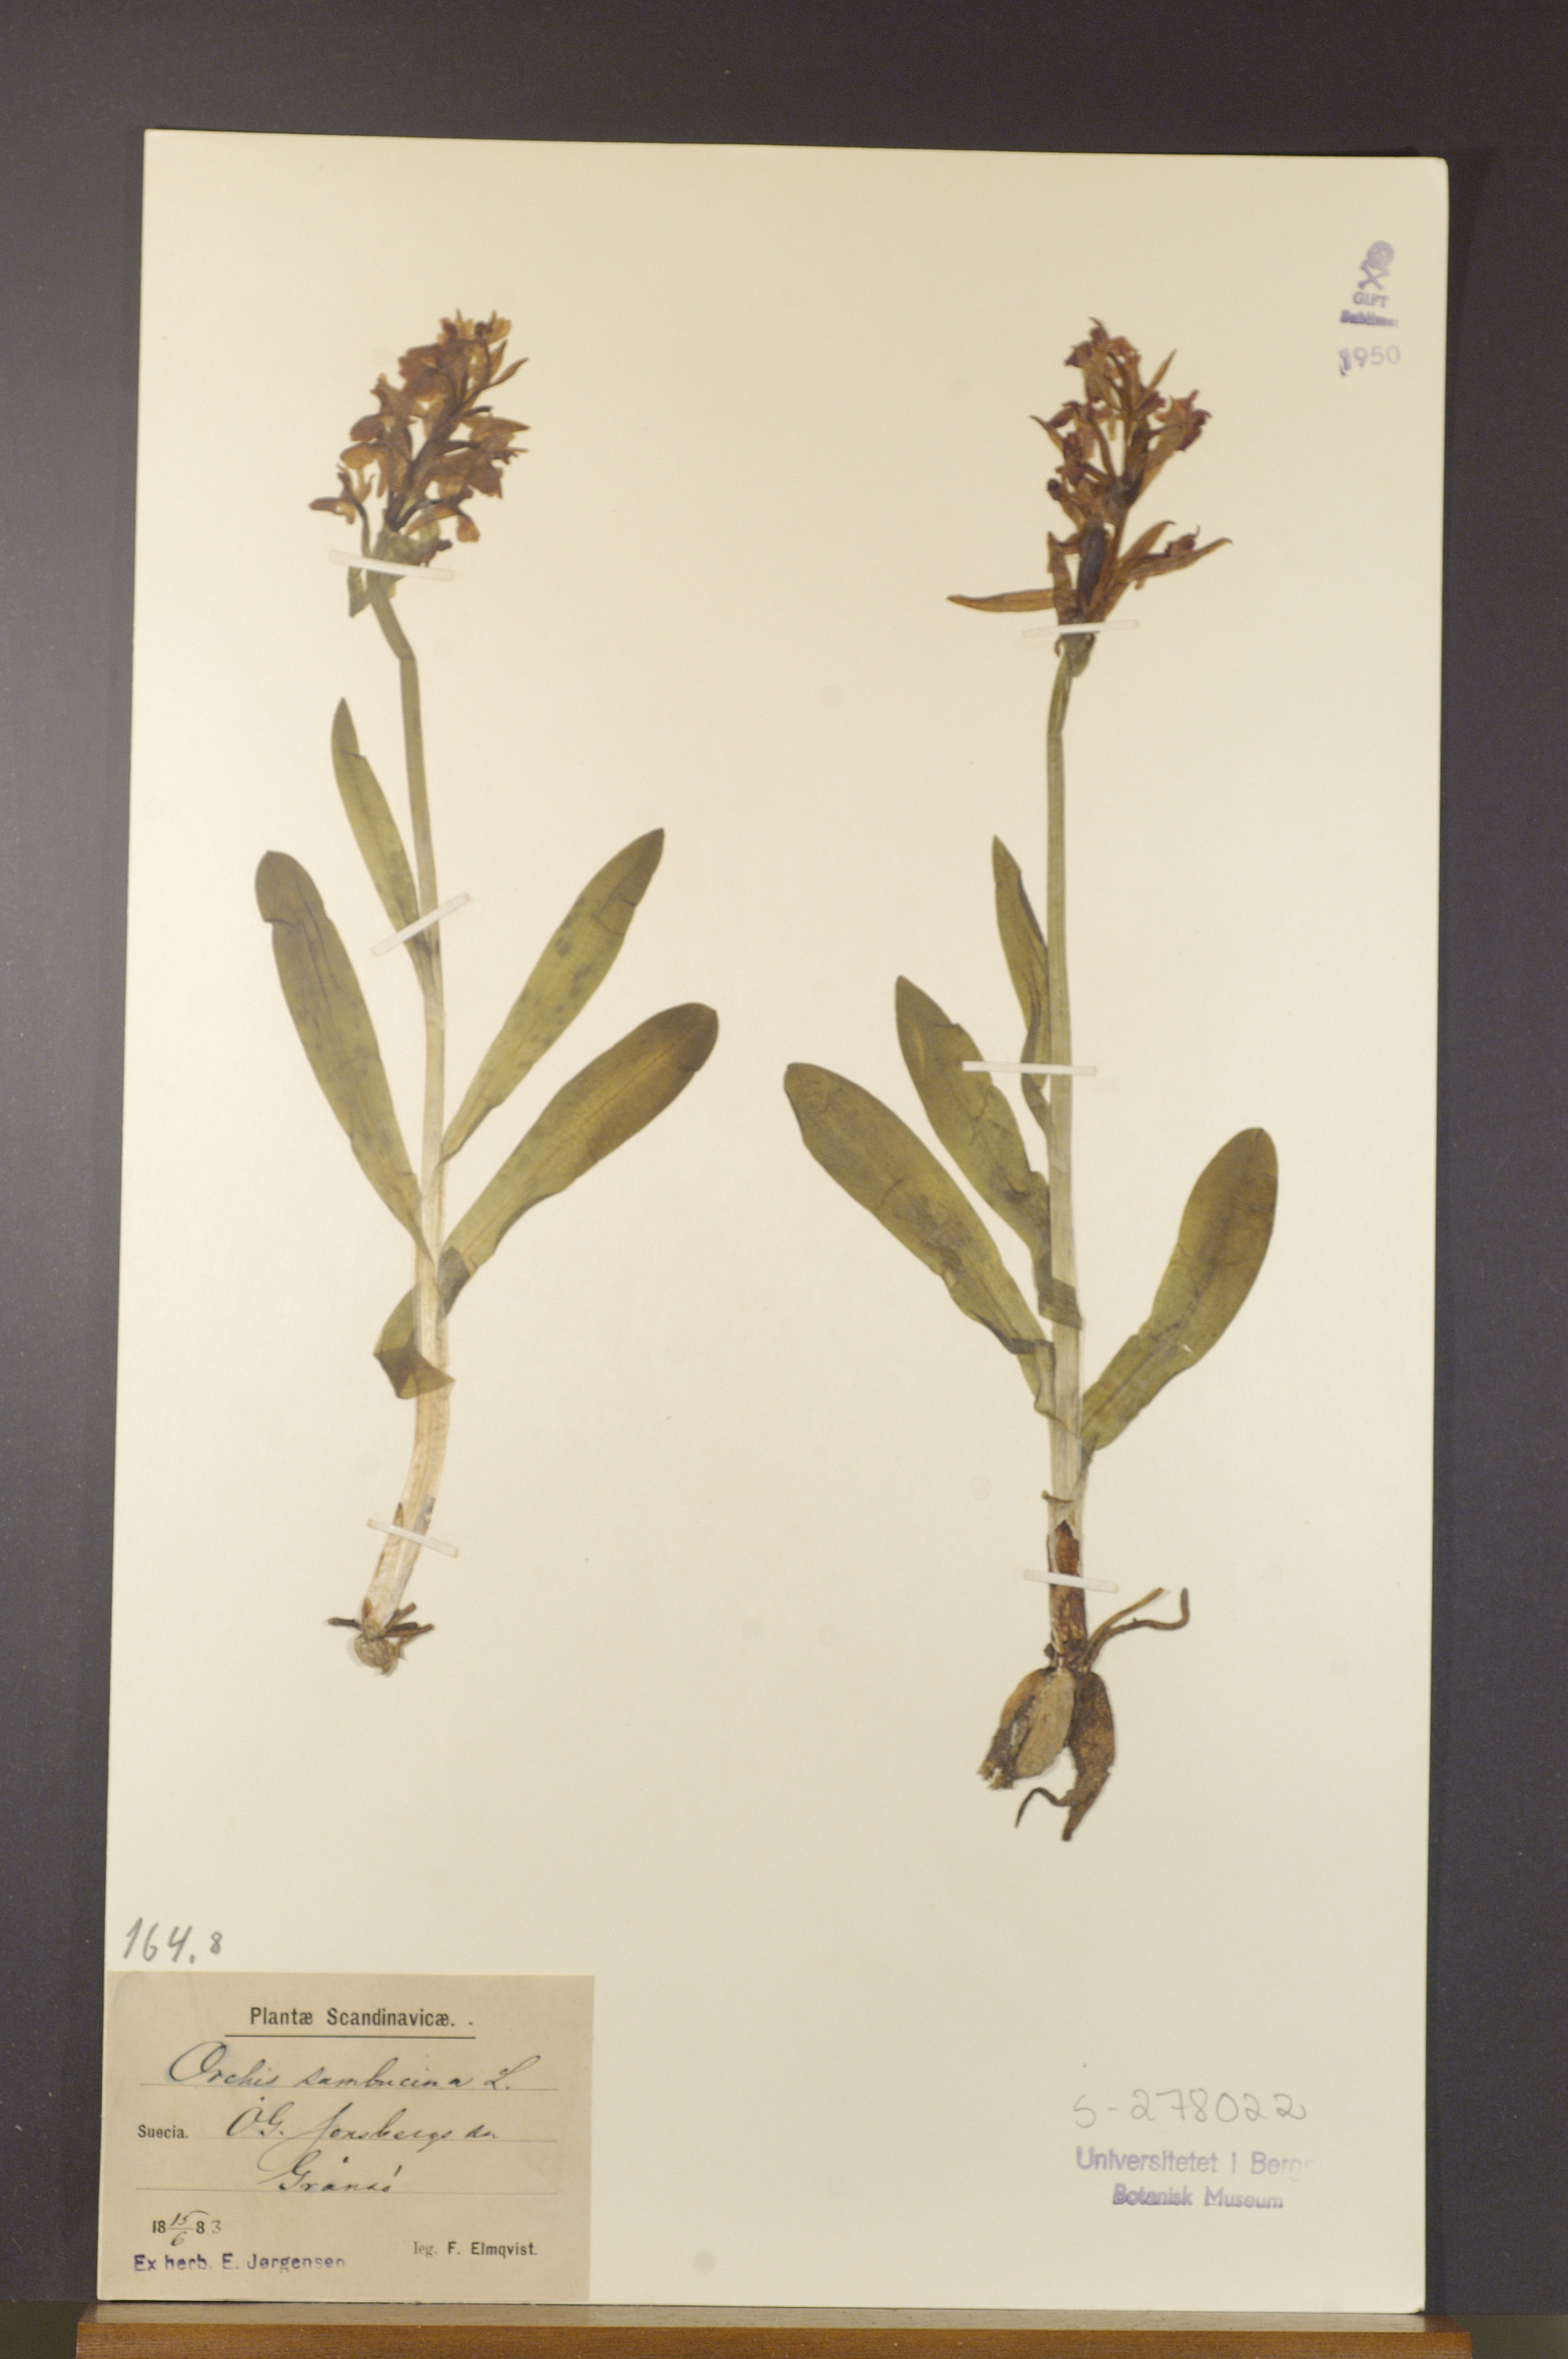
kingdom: Plantae
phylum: Tracheophyta
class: Liliopsida
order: Asparagales
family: Orchidaceae
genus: Dactylorhiza
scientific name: Dactylorhiza sambucina
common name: Elder-flowered orchid
